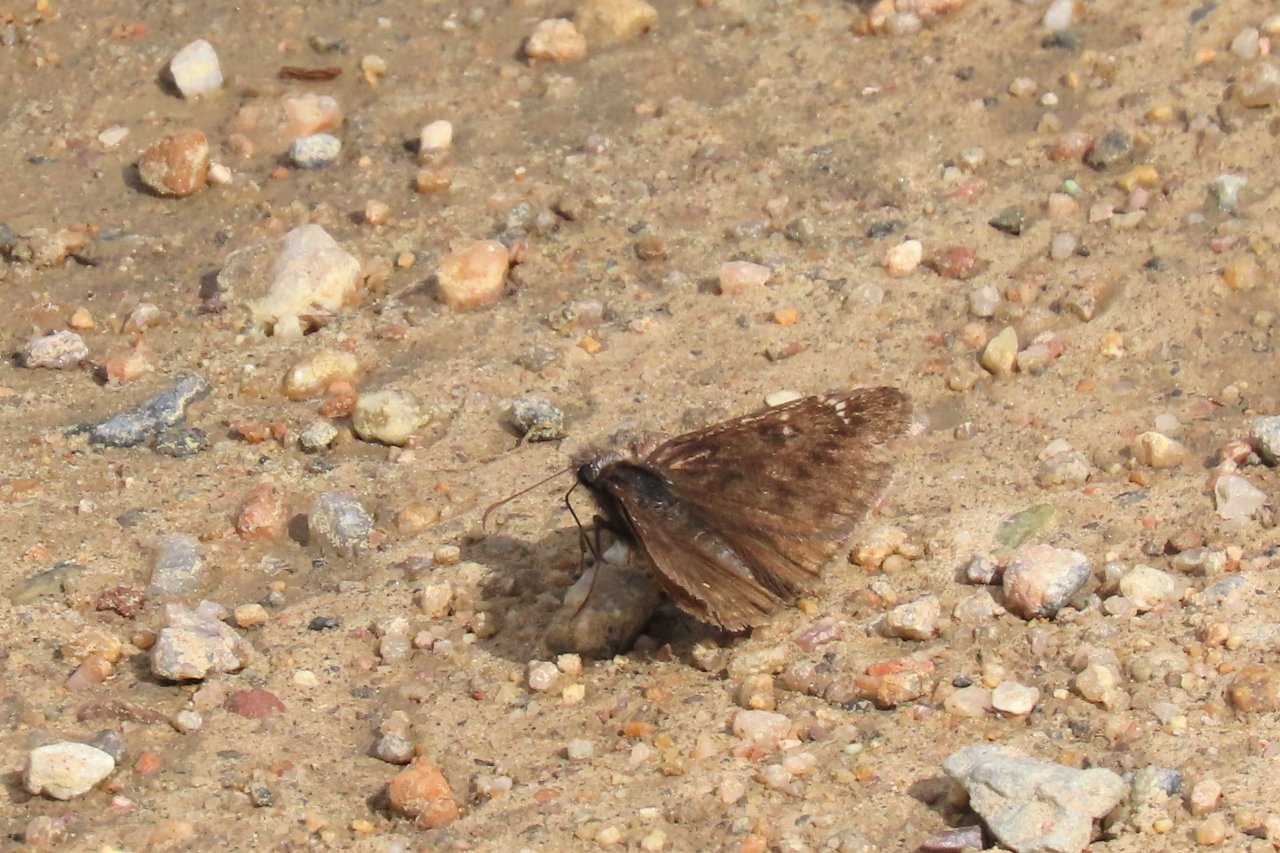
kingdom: Animalia
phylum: Arthropoda
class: Insecta
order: Lepidoptera
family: Hesperiidae
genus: Erynnis
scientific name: Erynnis
